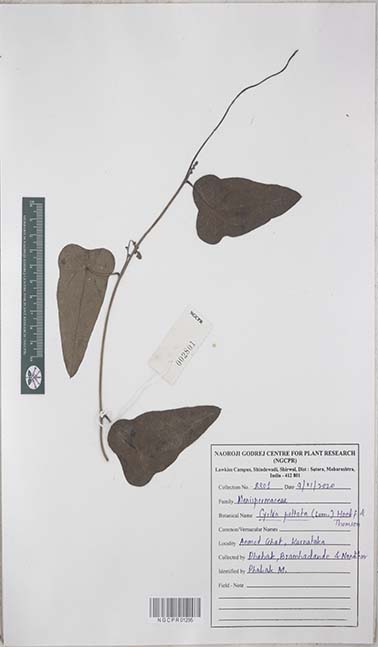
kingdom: Plantae
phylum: Tracheophyta
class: Magnoliopsida
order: Ranunculales
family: Menispermaceae
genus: Cyclea
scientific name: Cyclea peltata
